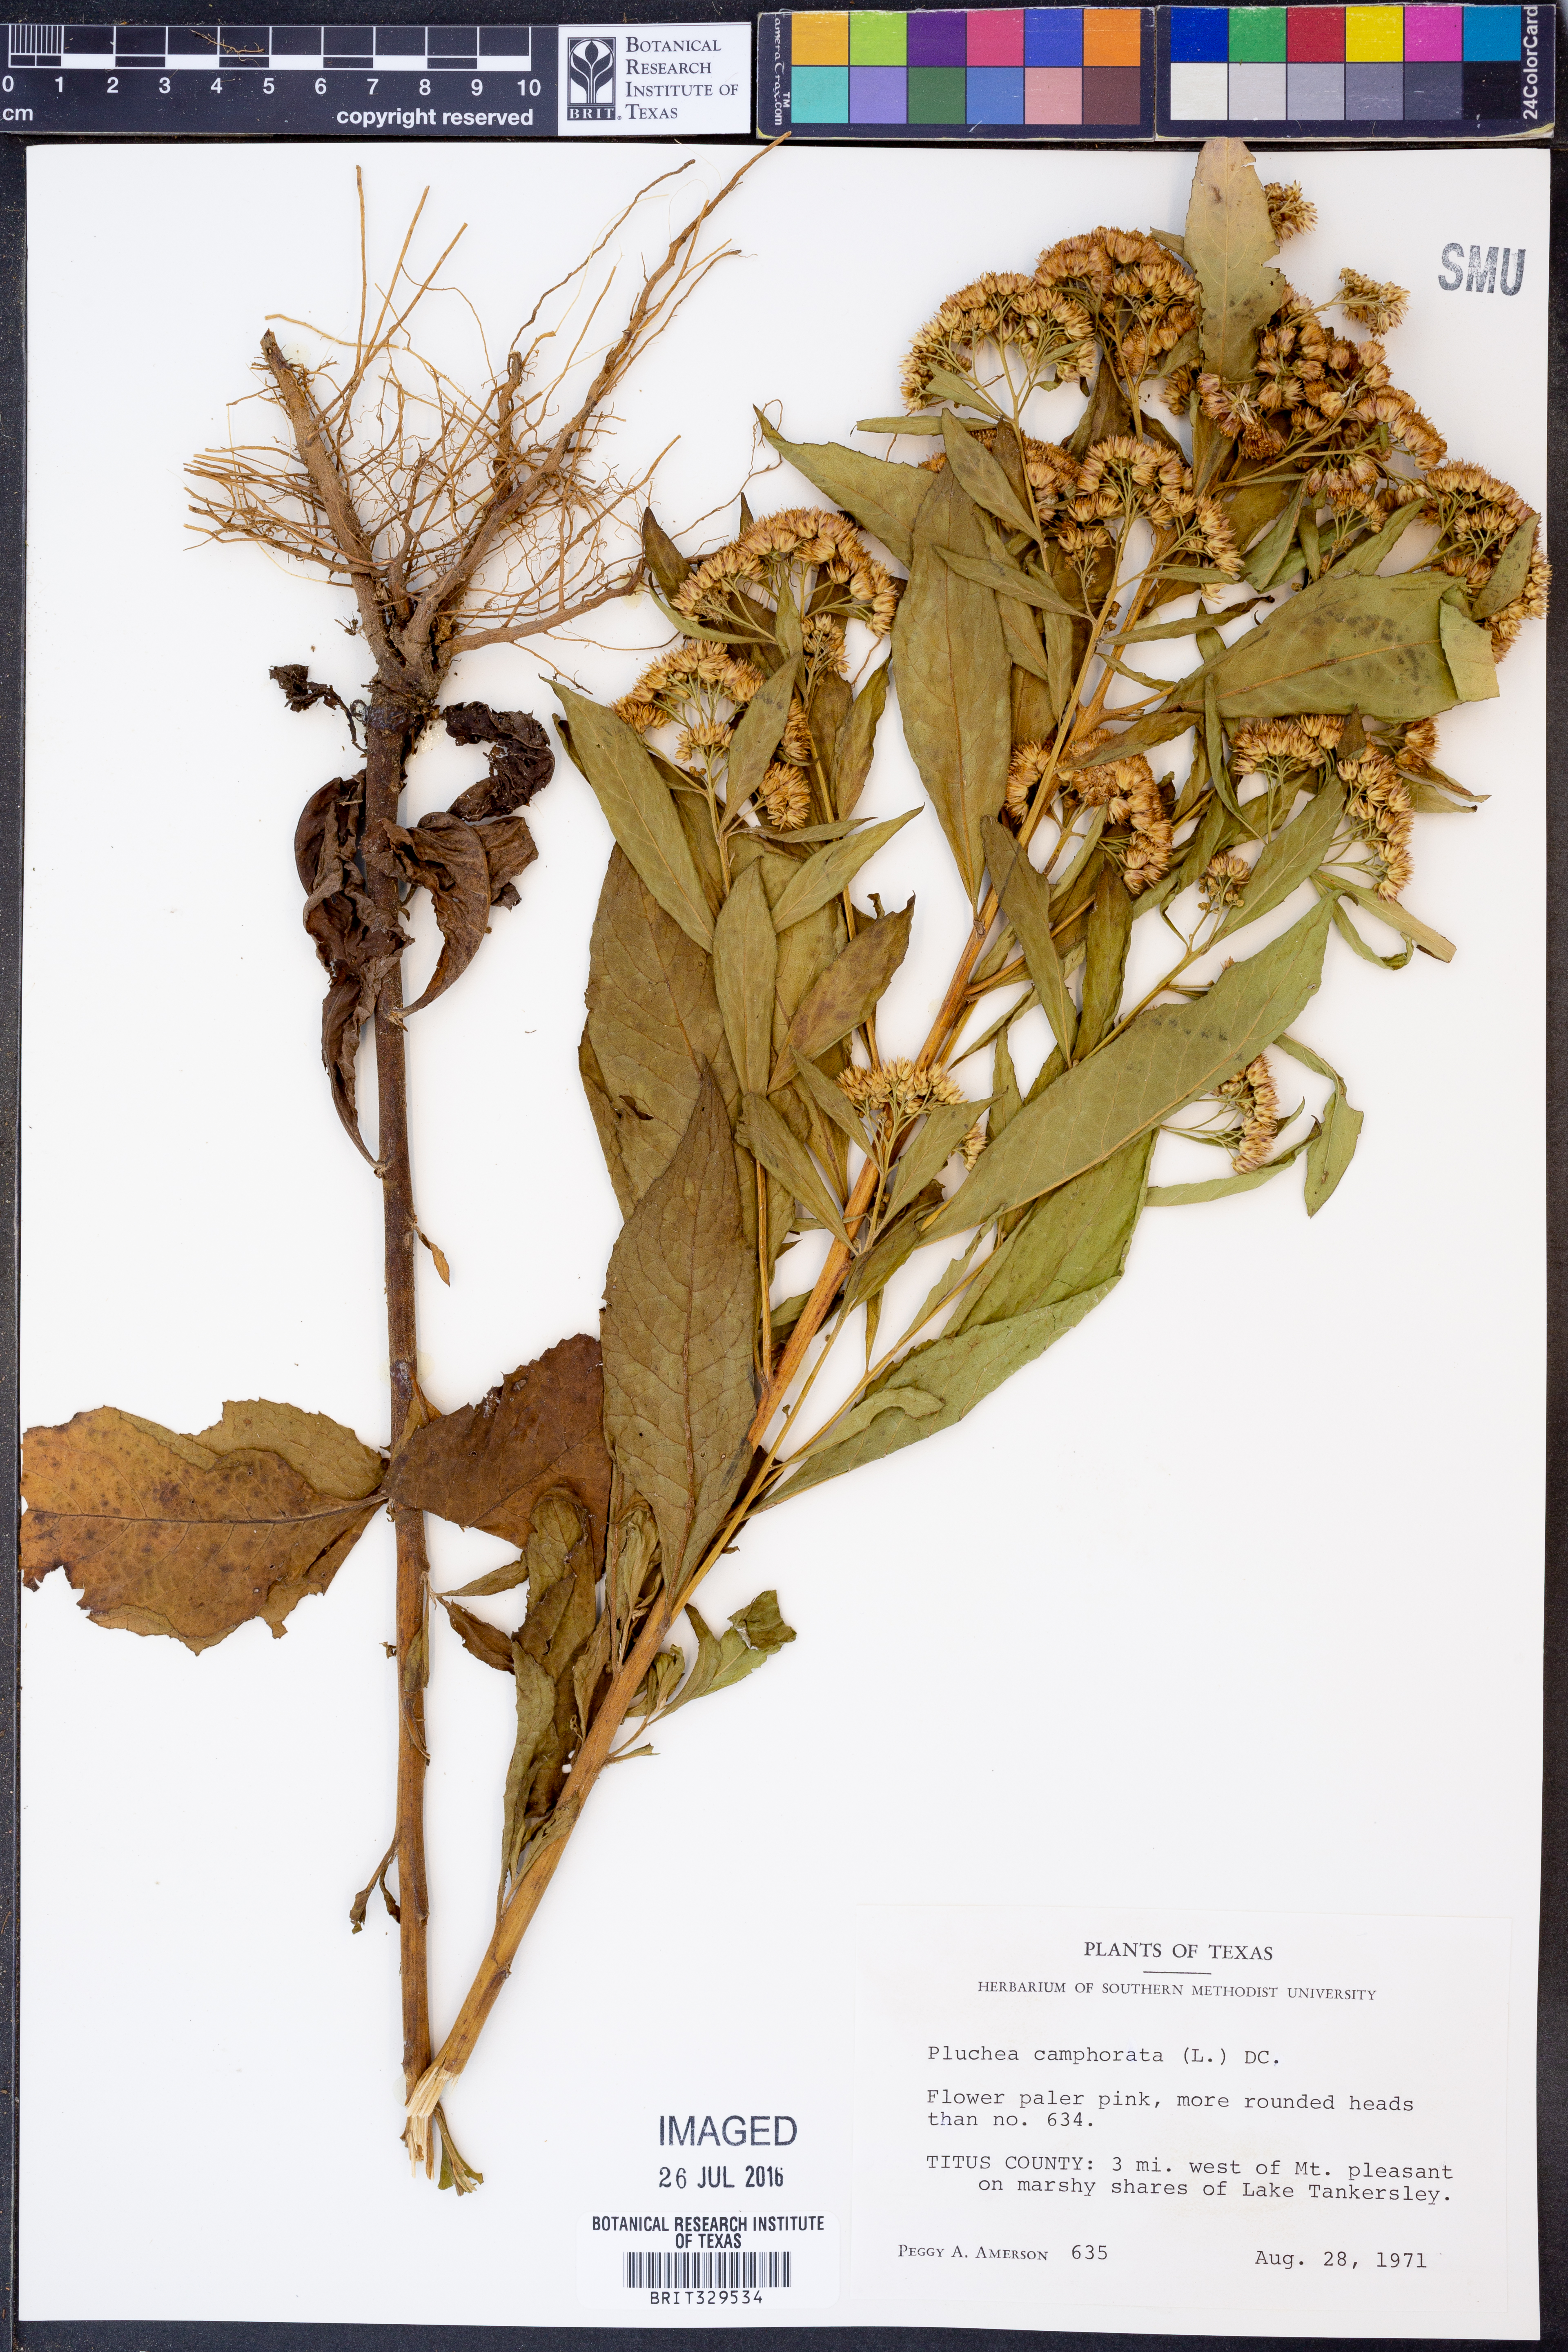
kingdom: Plantae
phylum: Tracheophyta
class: Magnoliopsida
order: Asterales
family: Asteraceae
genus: Pluchea
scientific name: Pluchea camphorata
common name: Camphor pluchea
